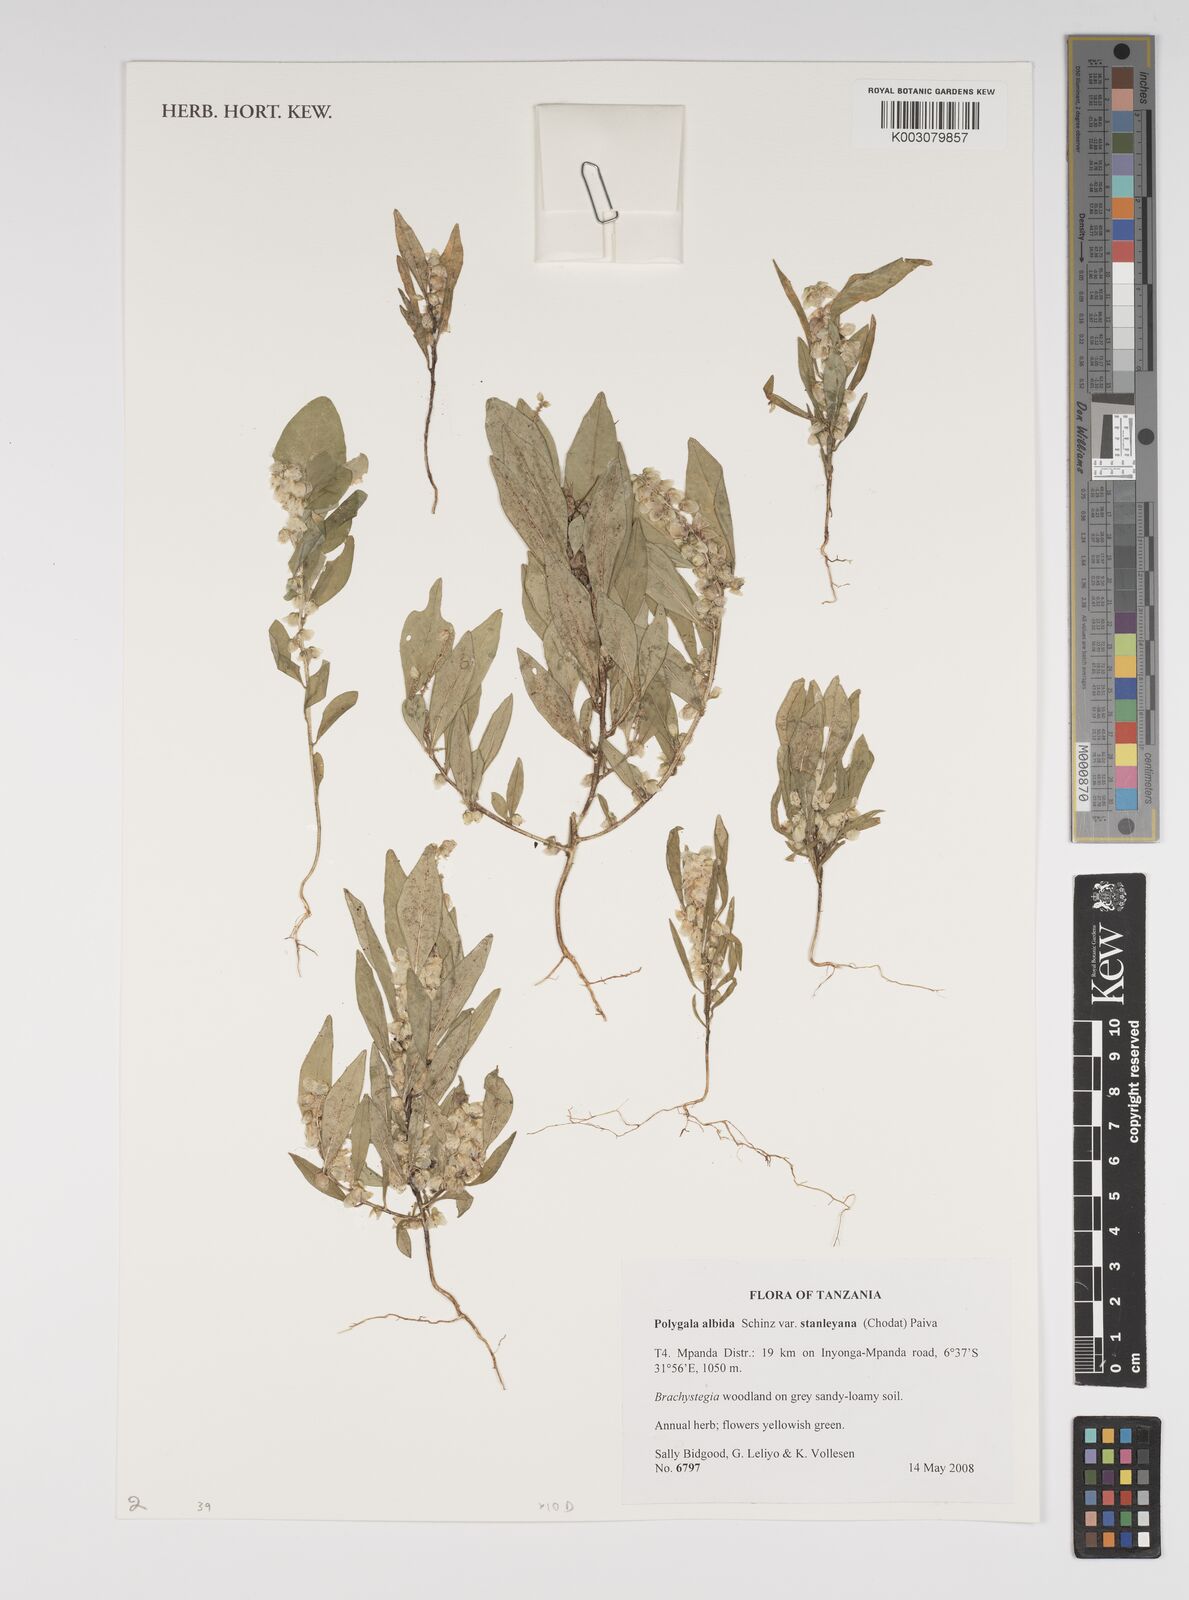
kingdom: Plantae
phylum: Tracheophyta
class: Magnoliopsida
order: Fabales
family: Polygalaceae
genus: Polygala
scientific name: Polygala albida
